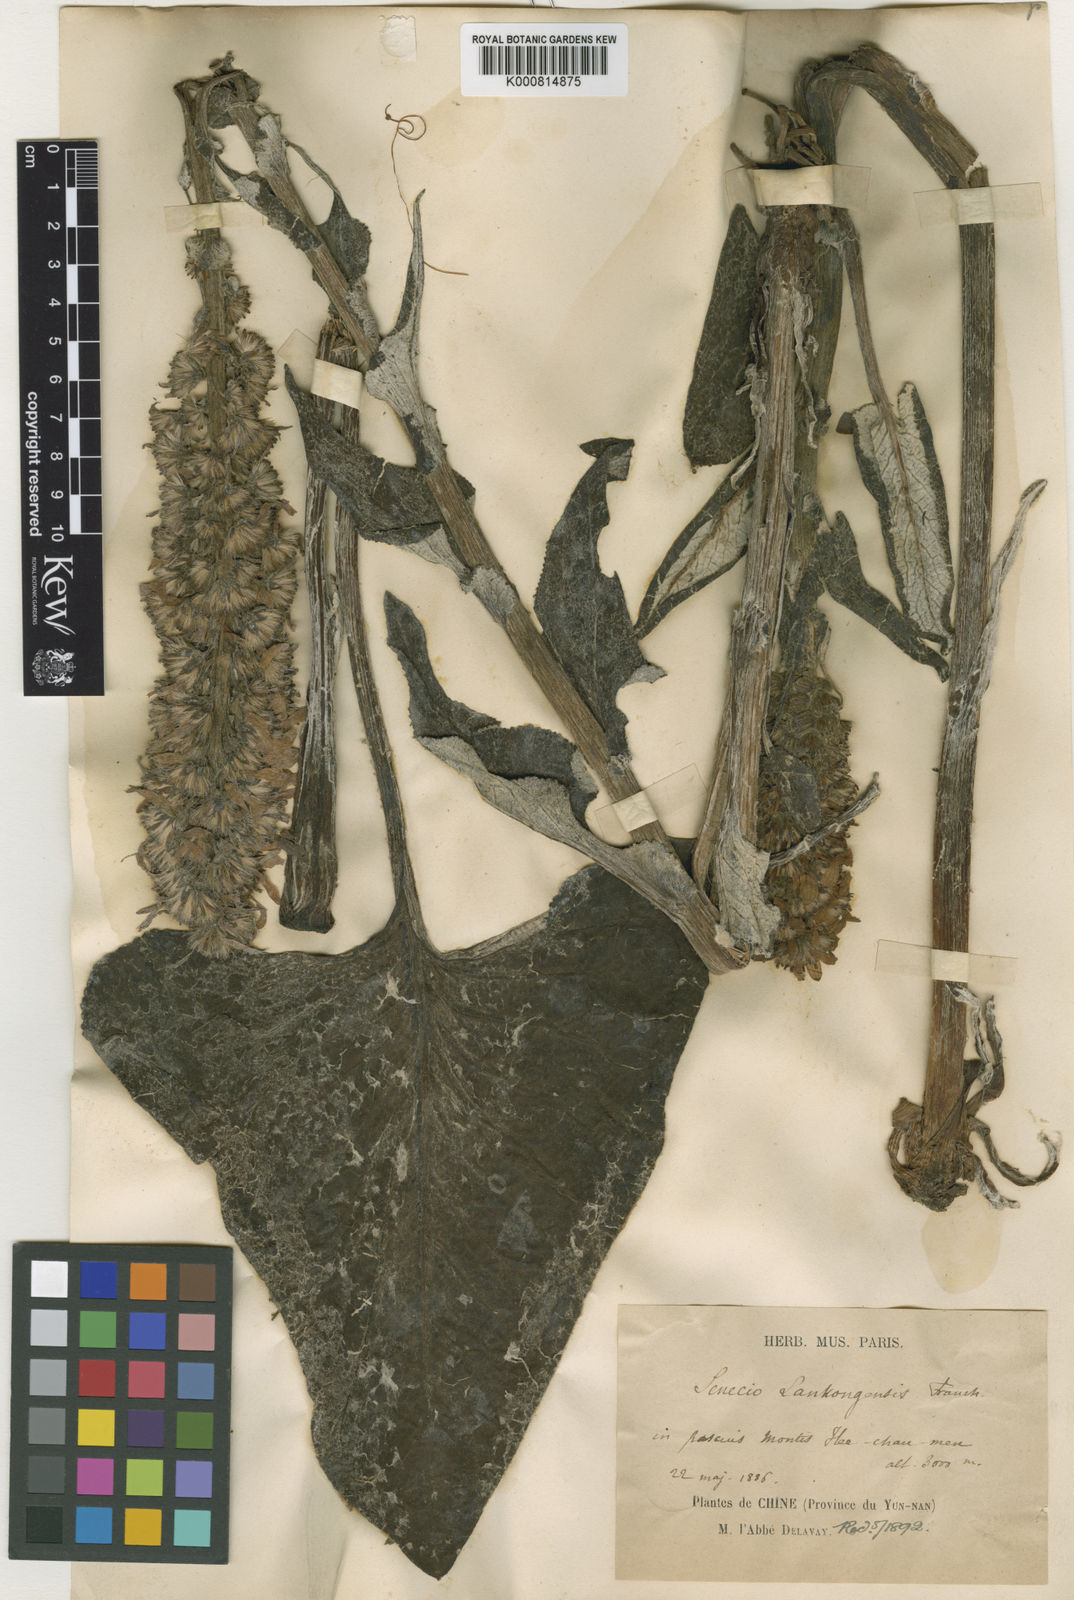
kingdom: Plantae
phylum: Tracheophyta
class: Magnoliopsida
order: Asterales
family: Asteraceae
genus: Ligularia
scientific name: Ligularia lankongensis
